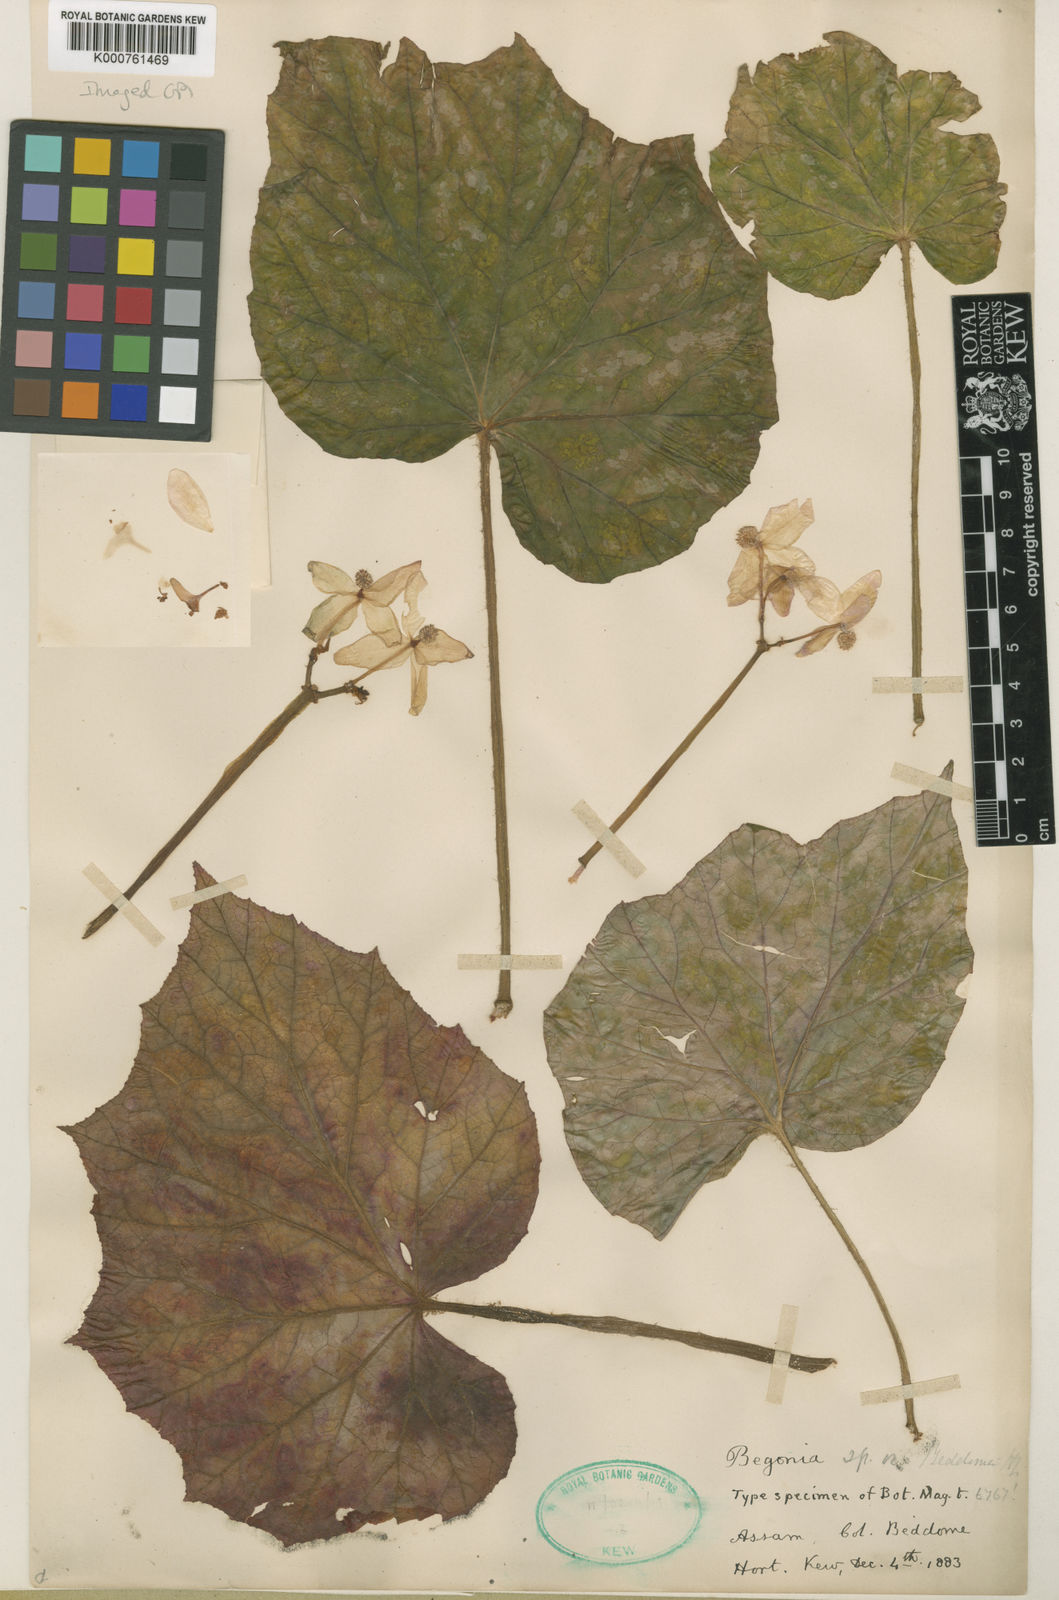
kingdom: Plantae
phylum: Tracheophyta
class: Magnoliopsida
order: Cucurbitales
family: Begoniaceae
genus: Begonia
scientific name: Begonia beddomei
